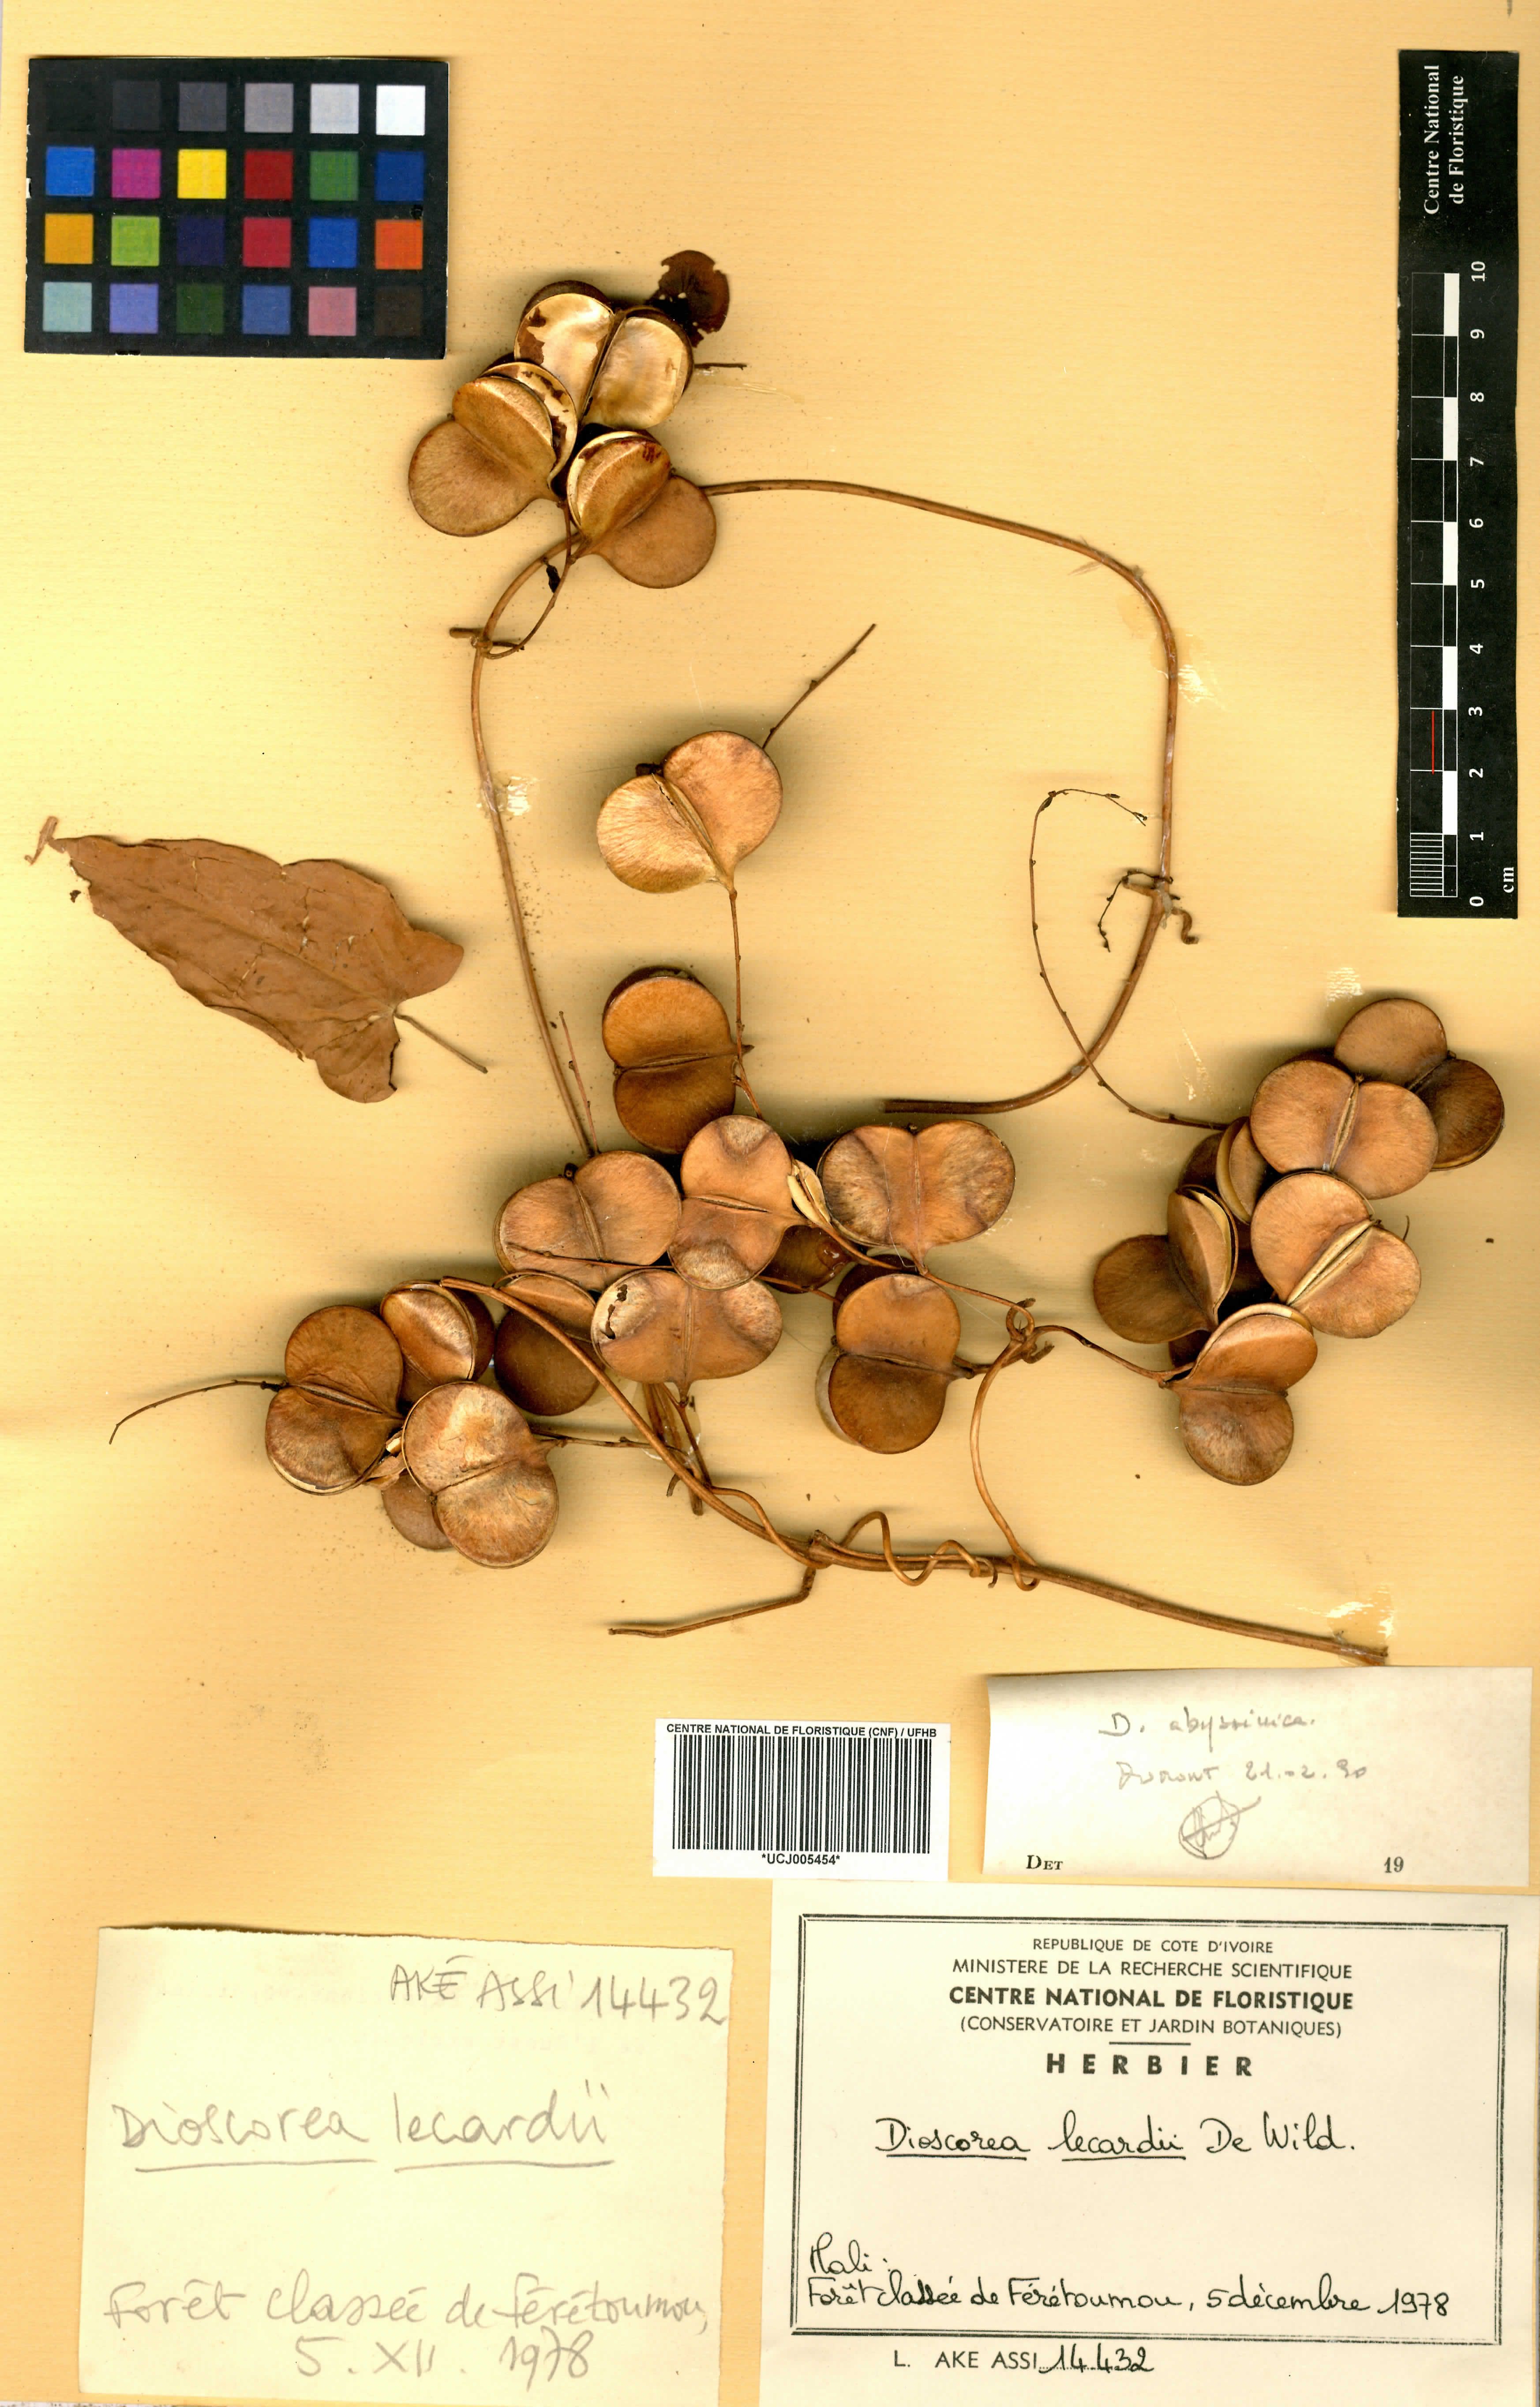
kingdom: Plantae
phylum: Tracheophyta
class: Liliopsida
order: Dioscoreales
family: Dioscoreaceae
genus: Dioscorea
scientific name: Dioscorea sagittifolia
